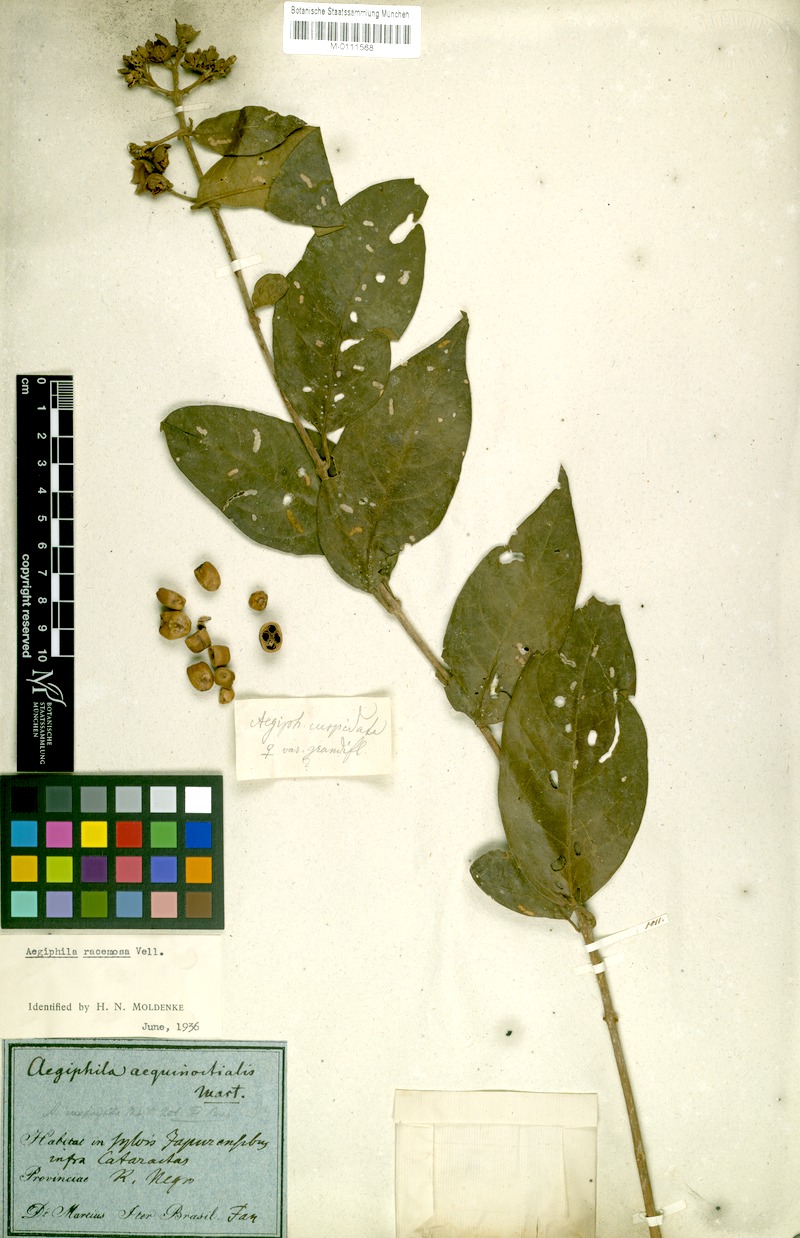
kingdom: Plantae
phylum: Tracheophyta
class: Magnoliopsida
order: Lamiales
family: Lamiaceae
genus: Aegiphila
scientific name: Aegiphila vitelliniflora
